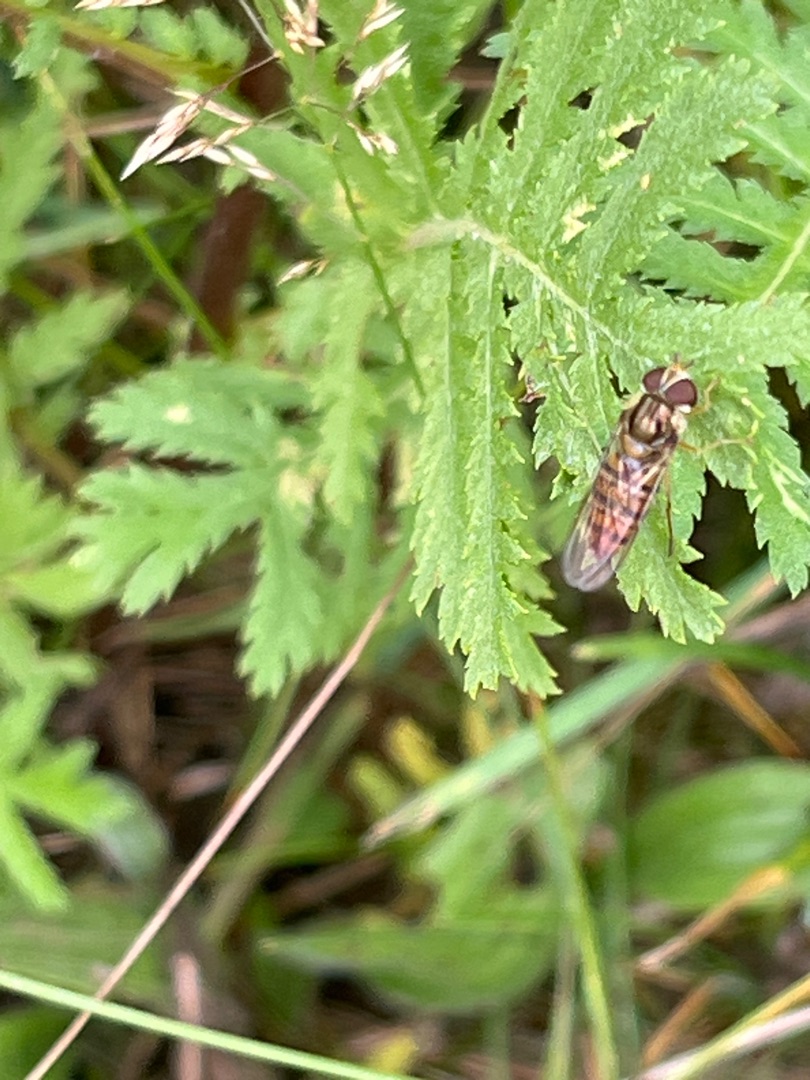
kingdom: Animalia
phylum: Arthropoda
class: Insecta
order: Diptera
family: Syrphidae
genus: Episyrphus
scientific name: Episyrphus balteatus
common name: Dobbeltbåndet svirreflue
